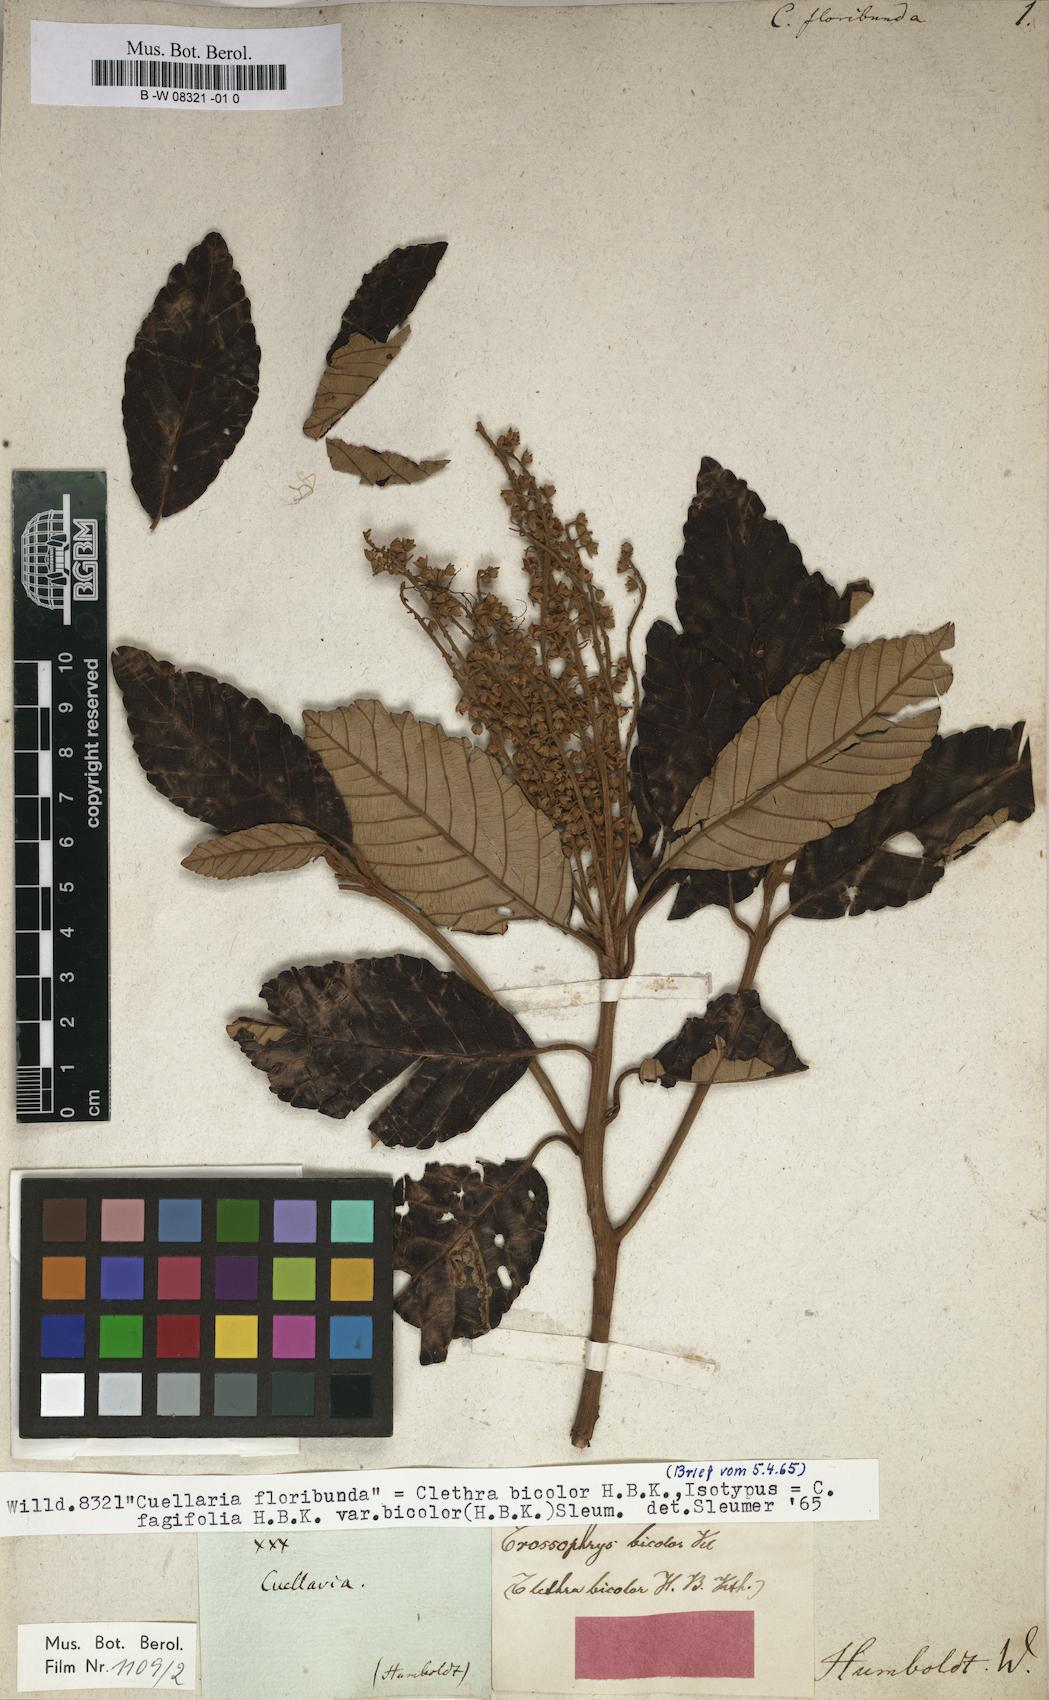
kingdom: Plantae
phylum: Tracheophyta
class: Magnoliopsida
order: Ericales
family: Clethraceae
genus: Clethra
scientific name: Clethra
